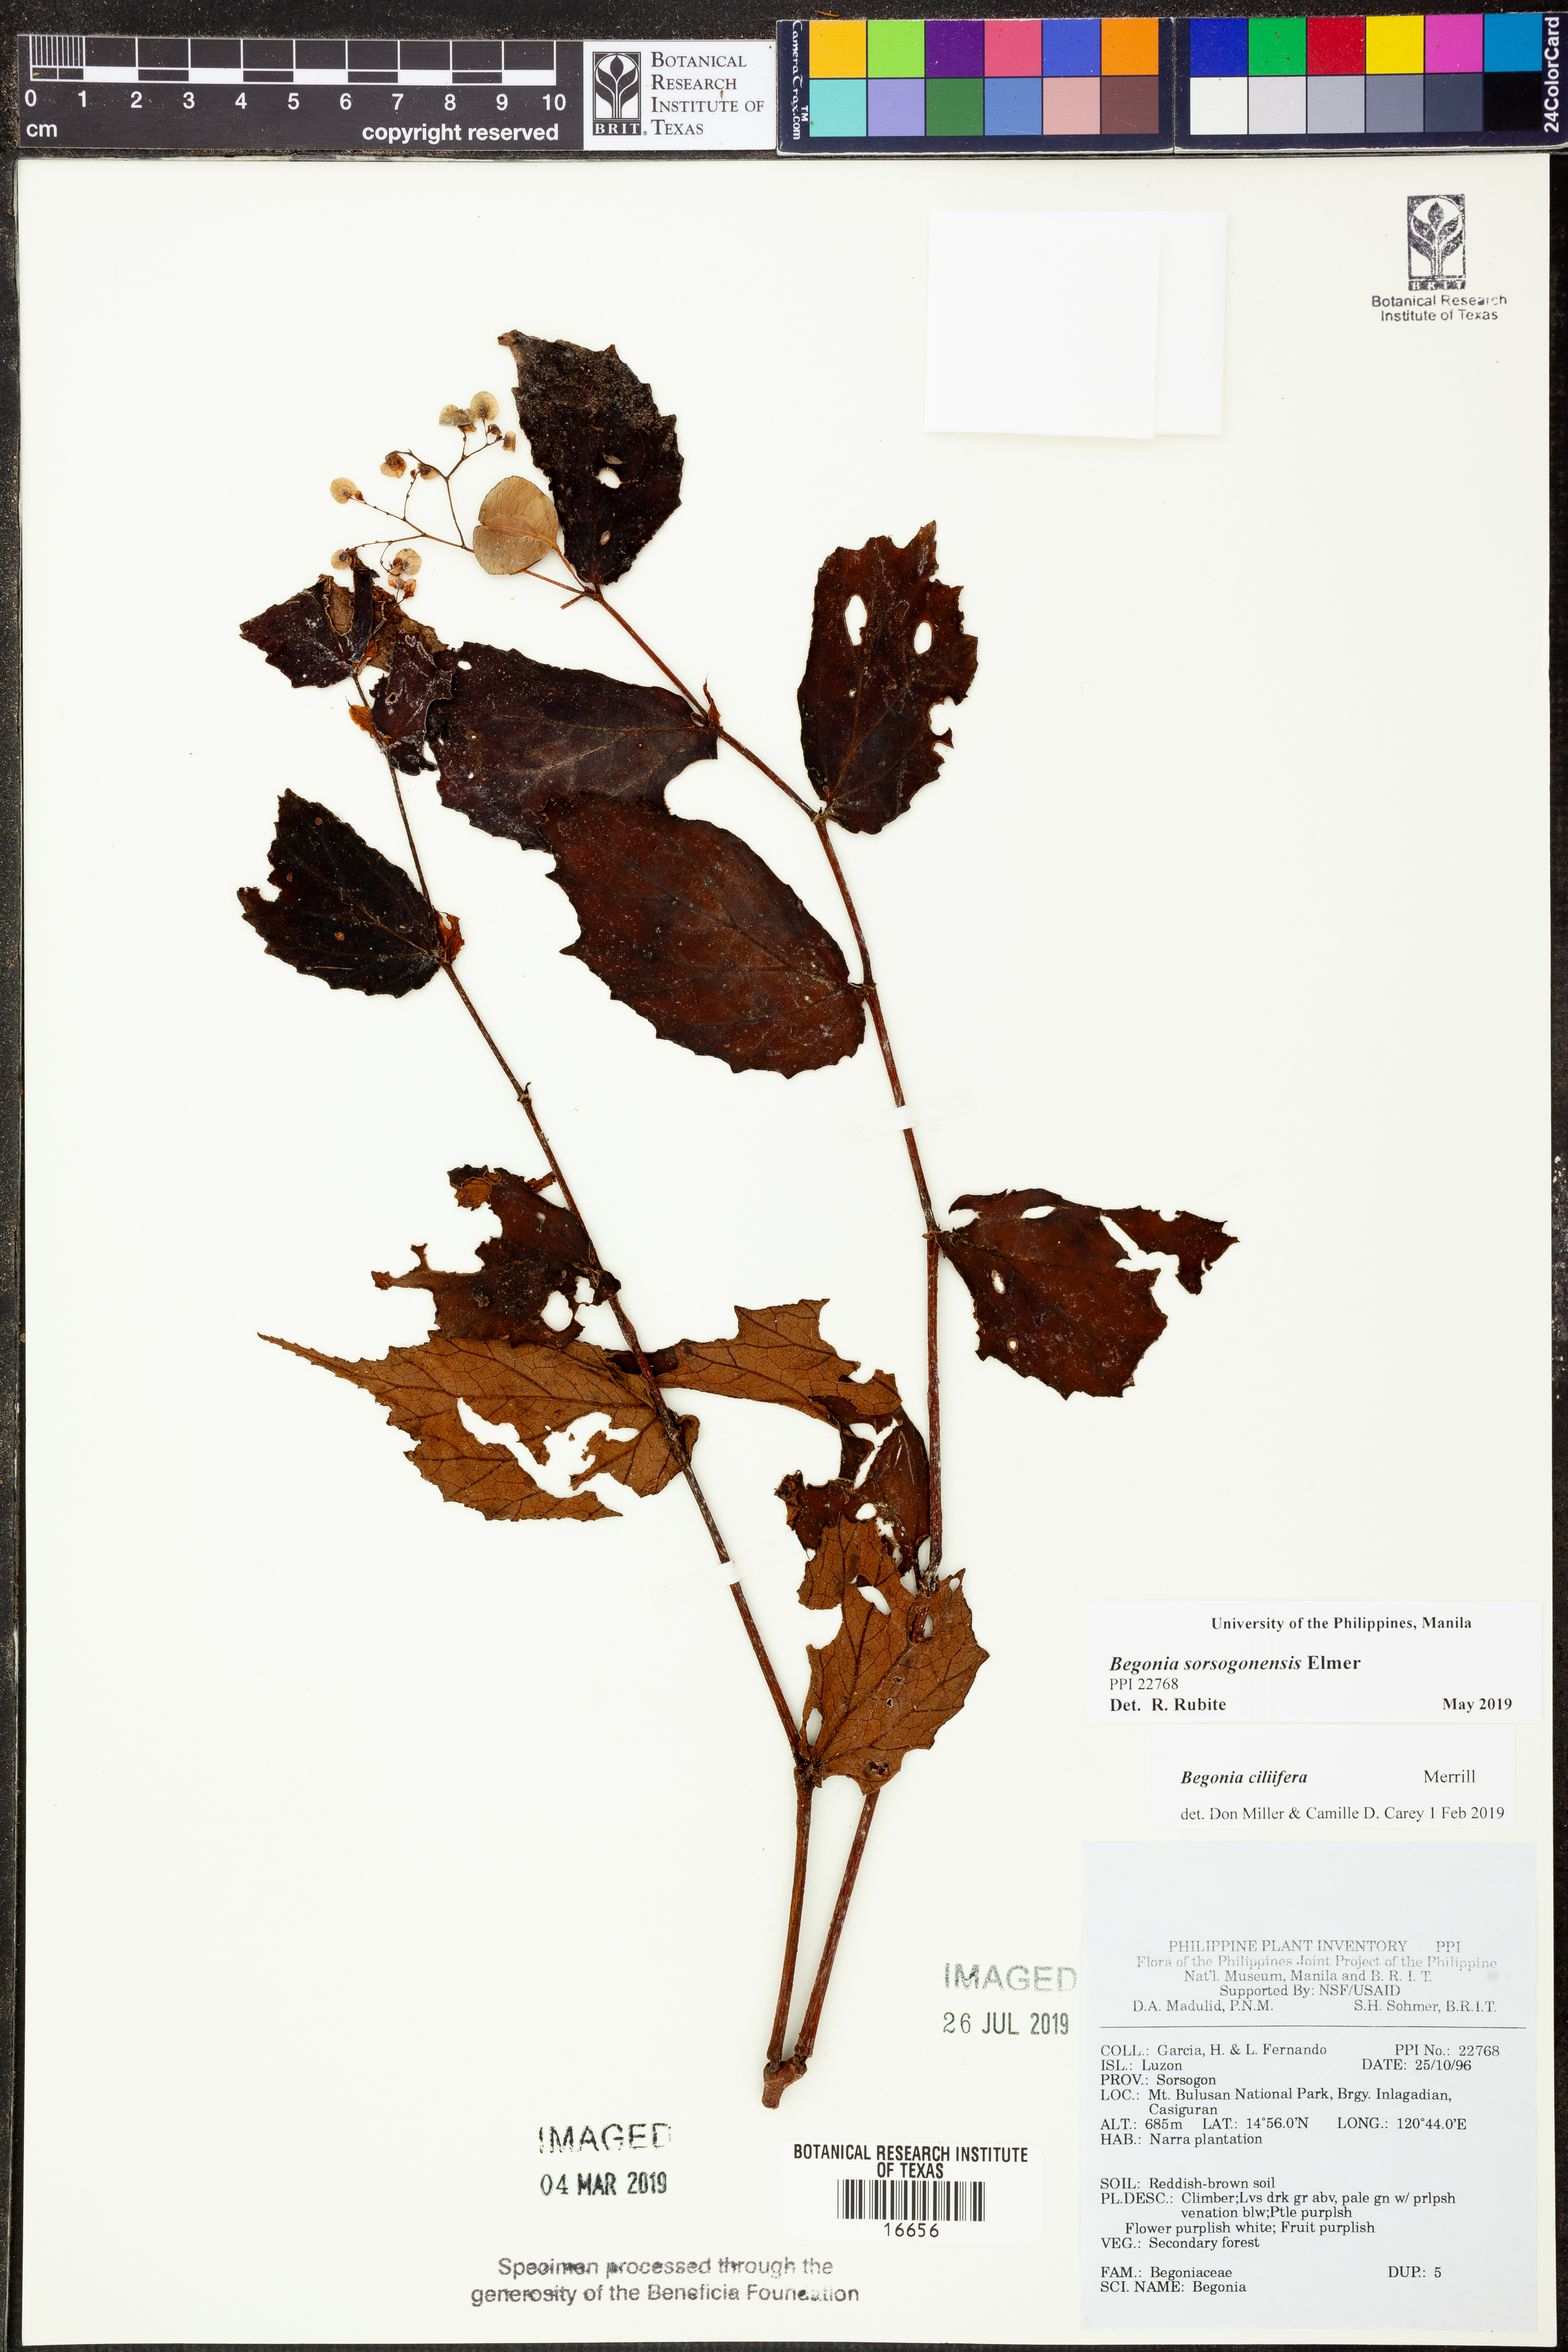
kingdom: Plantae
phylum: Tracheophyta
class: Magnoliopsida
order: Cucurbitales
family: Begoniaceae
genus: Begonia
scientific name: Begonia ciliifera
